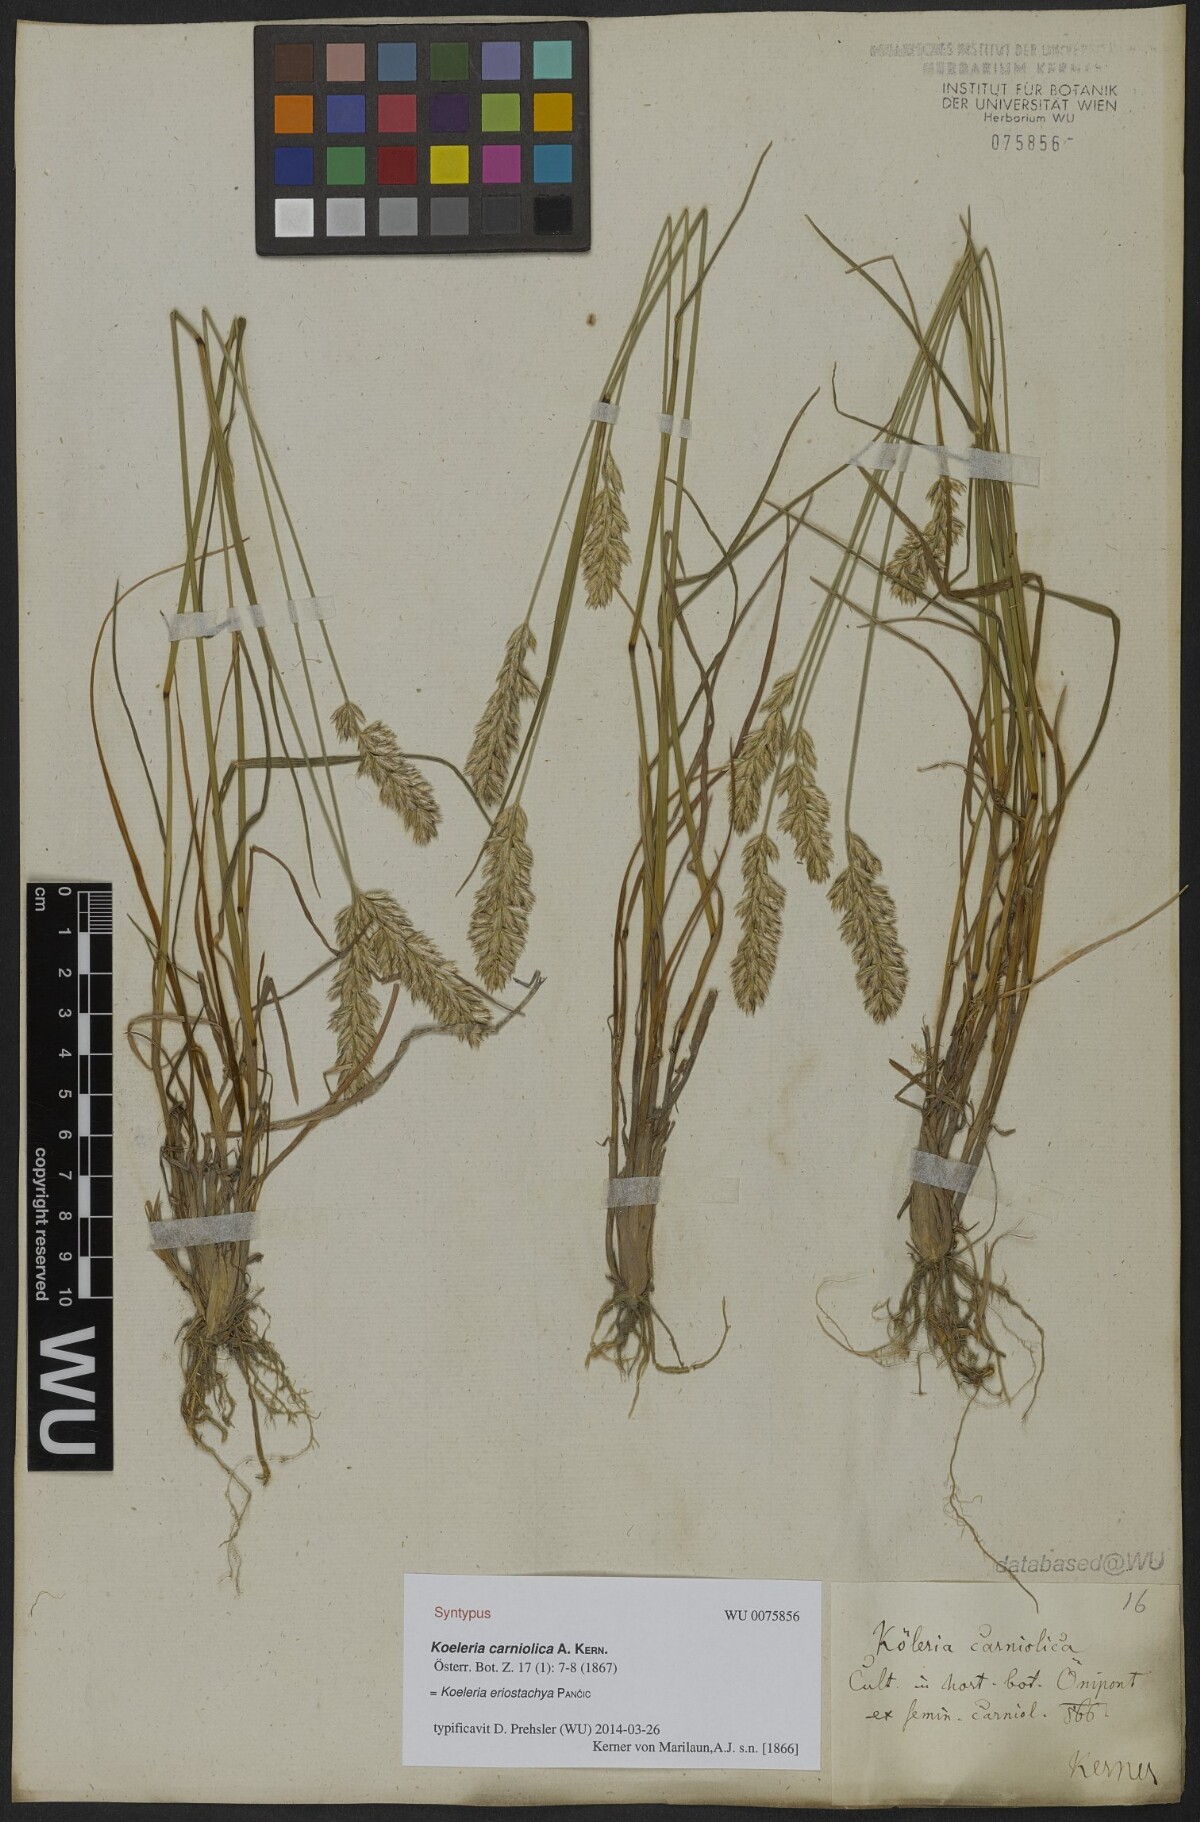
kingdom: Plantae
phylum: Tracheophyta
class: Liliopsida
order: Poales
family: Poaceae
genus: Koeleria
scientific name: Koeleria eriostachya
